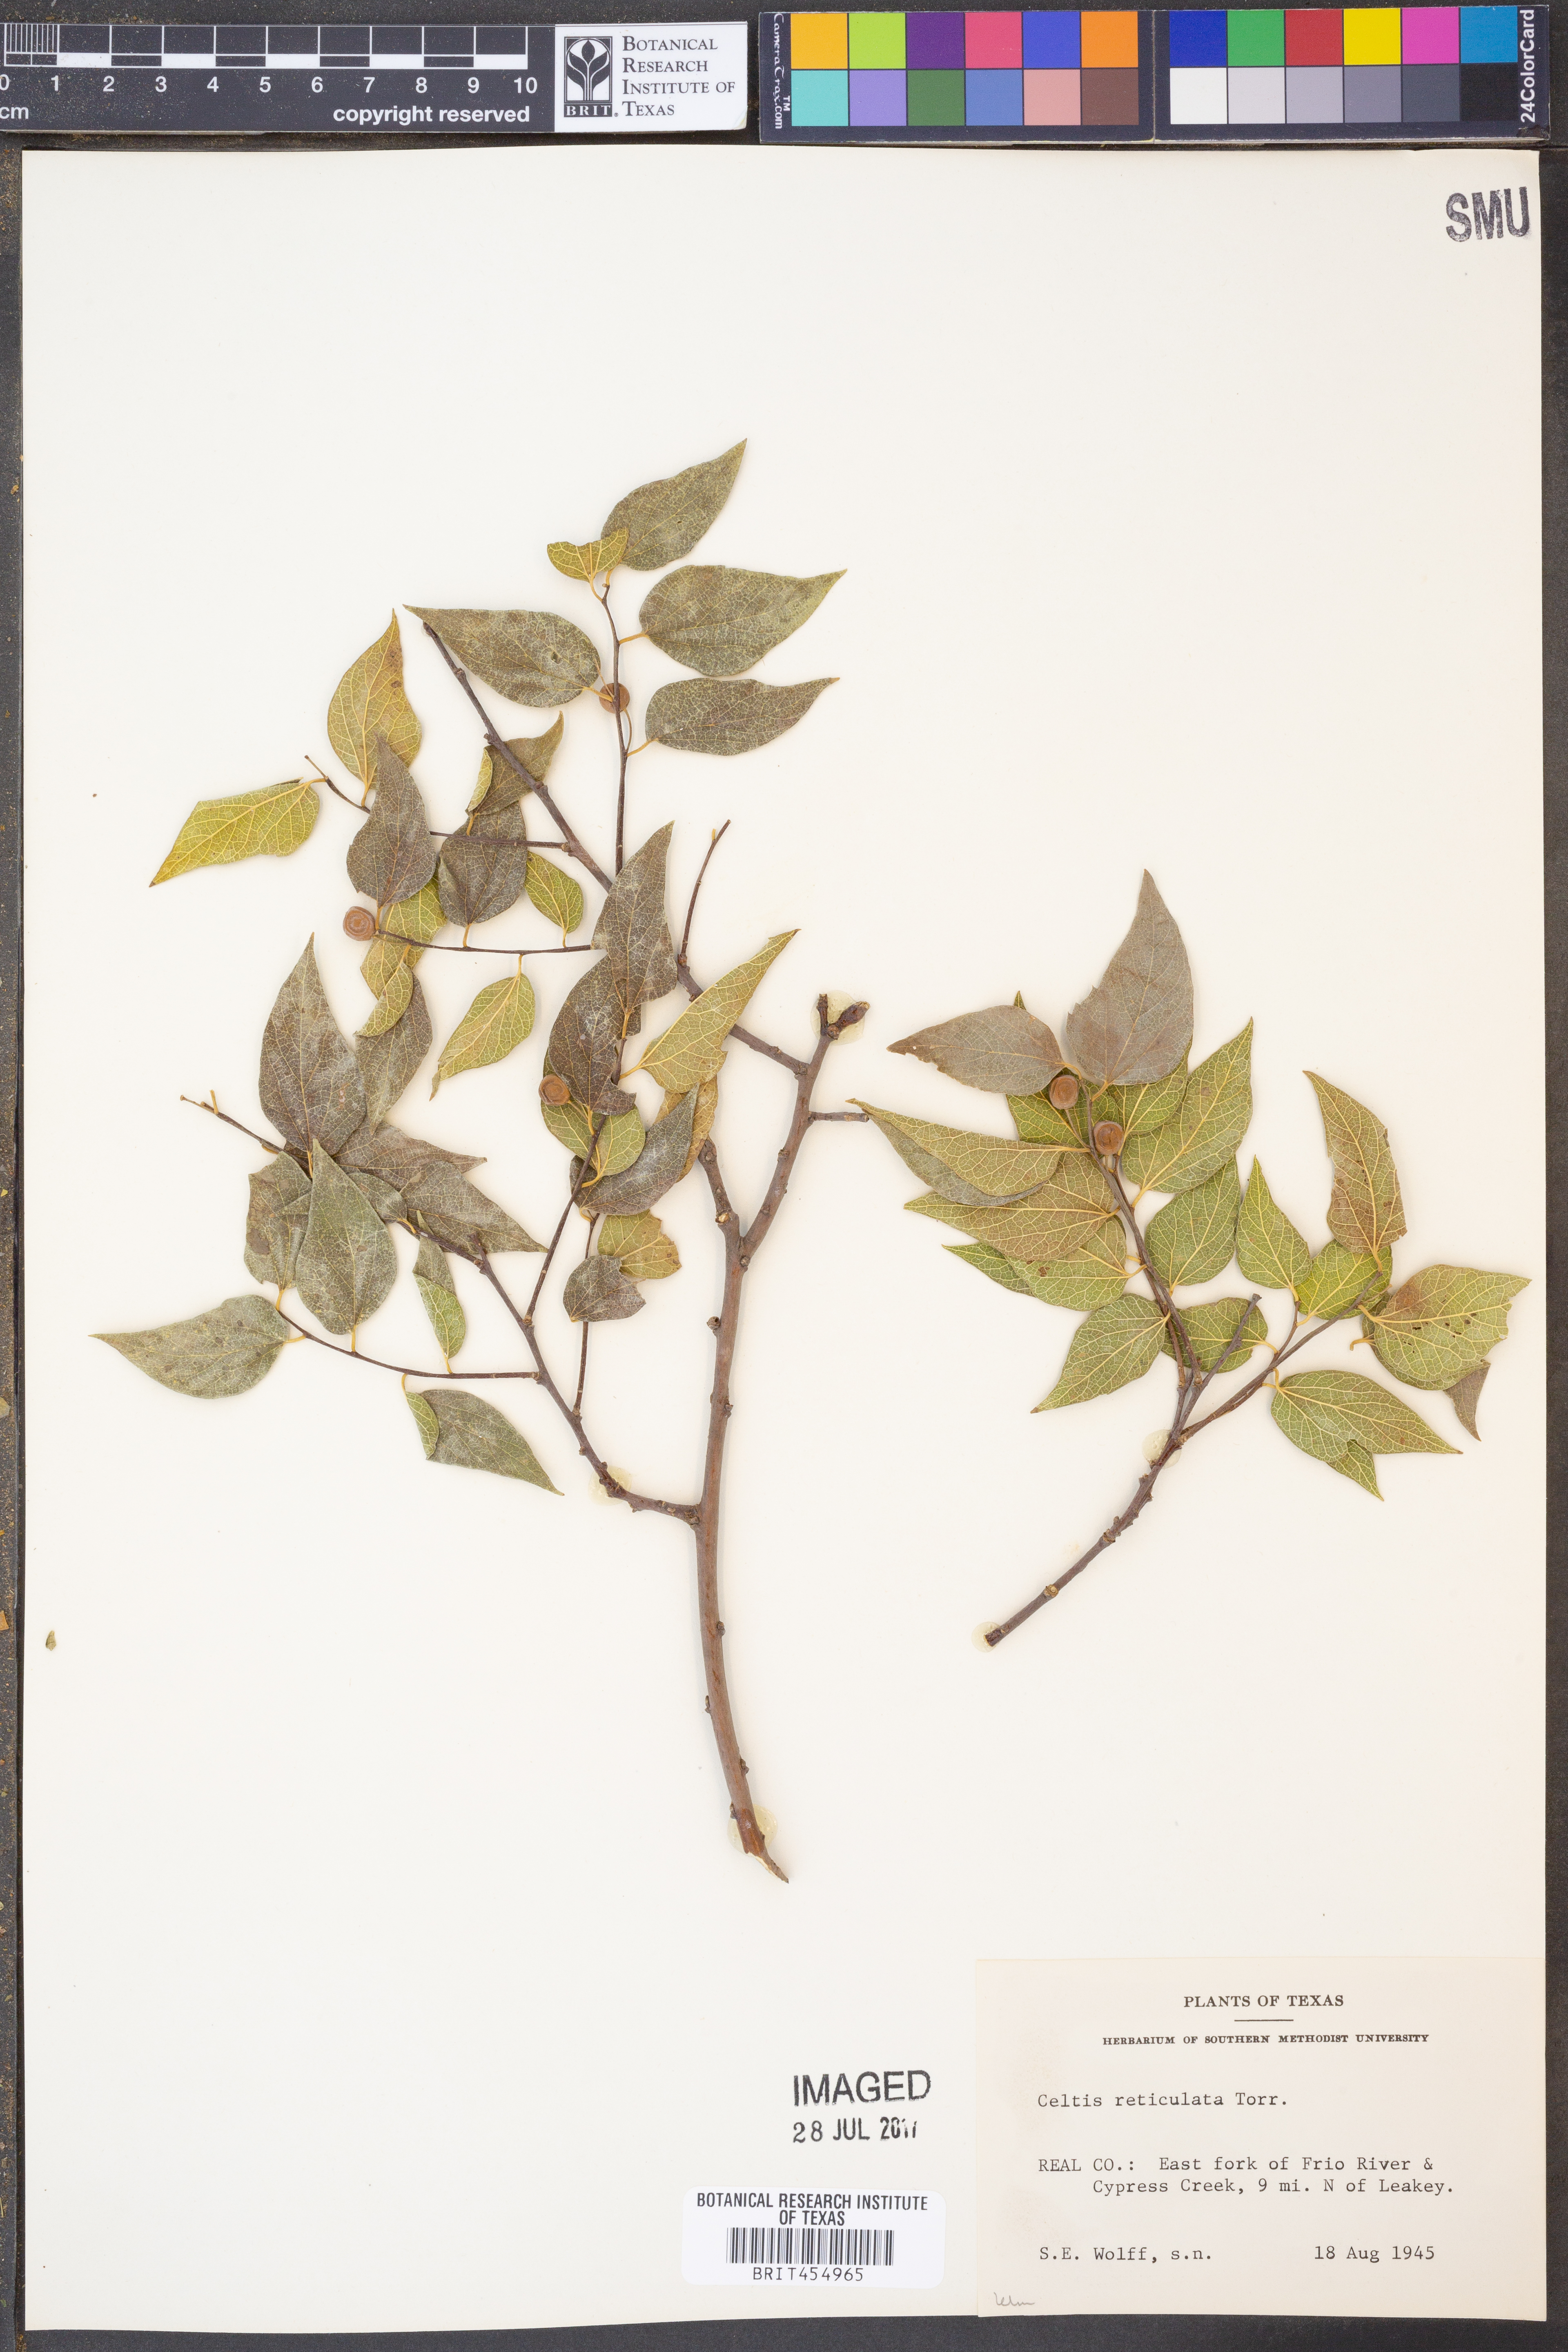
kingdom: Plantae
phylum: Tracheophyta
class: Magnoliopsida
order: Rosales
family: Cannabaceae
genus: Celtis
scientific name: Celtis reticulata
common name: Netleaf hackberry
